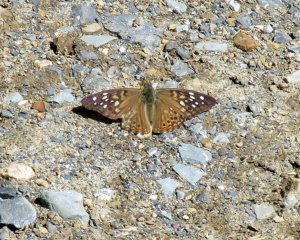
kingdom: Animalia
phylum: Arthropoda
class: Insecta
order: Lepidoptera
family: Nymphalidae
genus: Asterocampa
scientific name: Asterocampa celtis
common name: Hackberry Emperor
